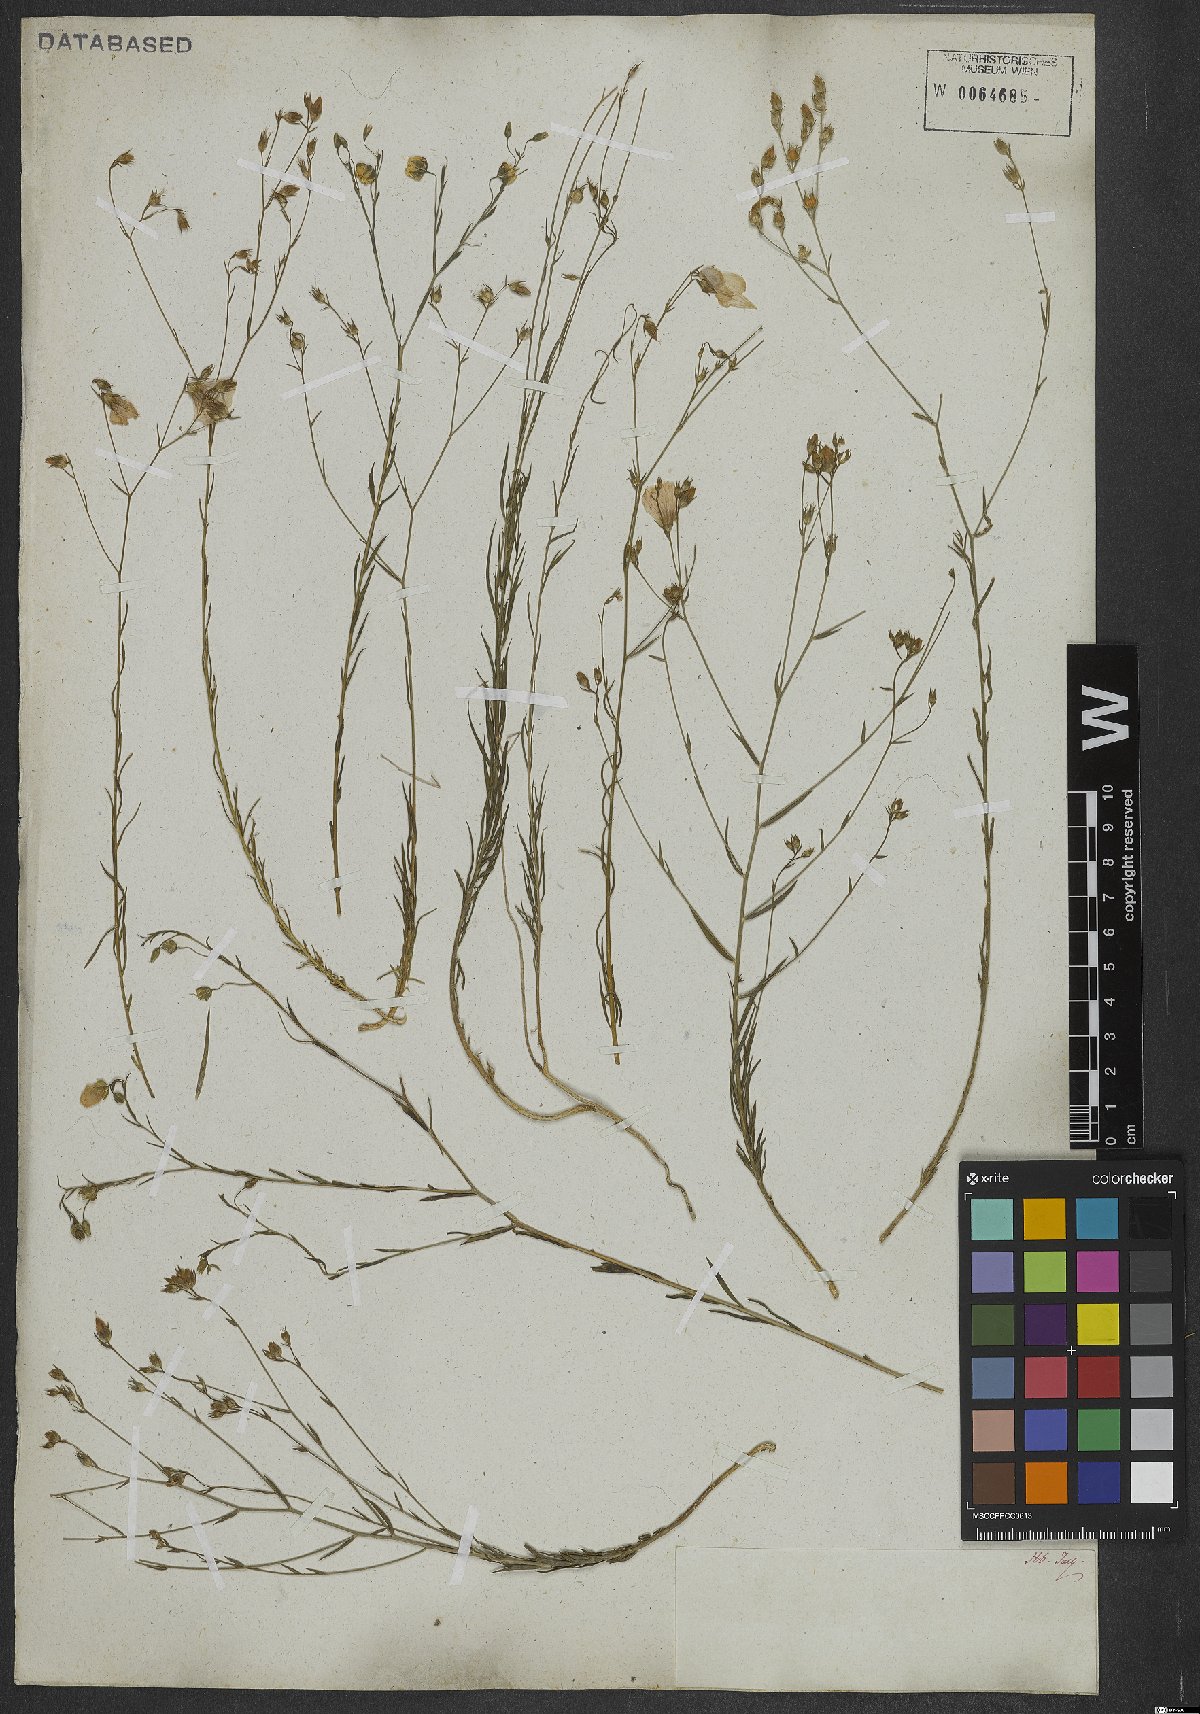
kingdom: Plantae
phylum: Tracheophyta
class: Magnoliopsida
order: Malpighiales
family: Linaceae
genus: Linum
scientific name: Linum tenuifolium
